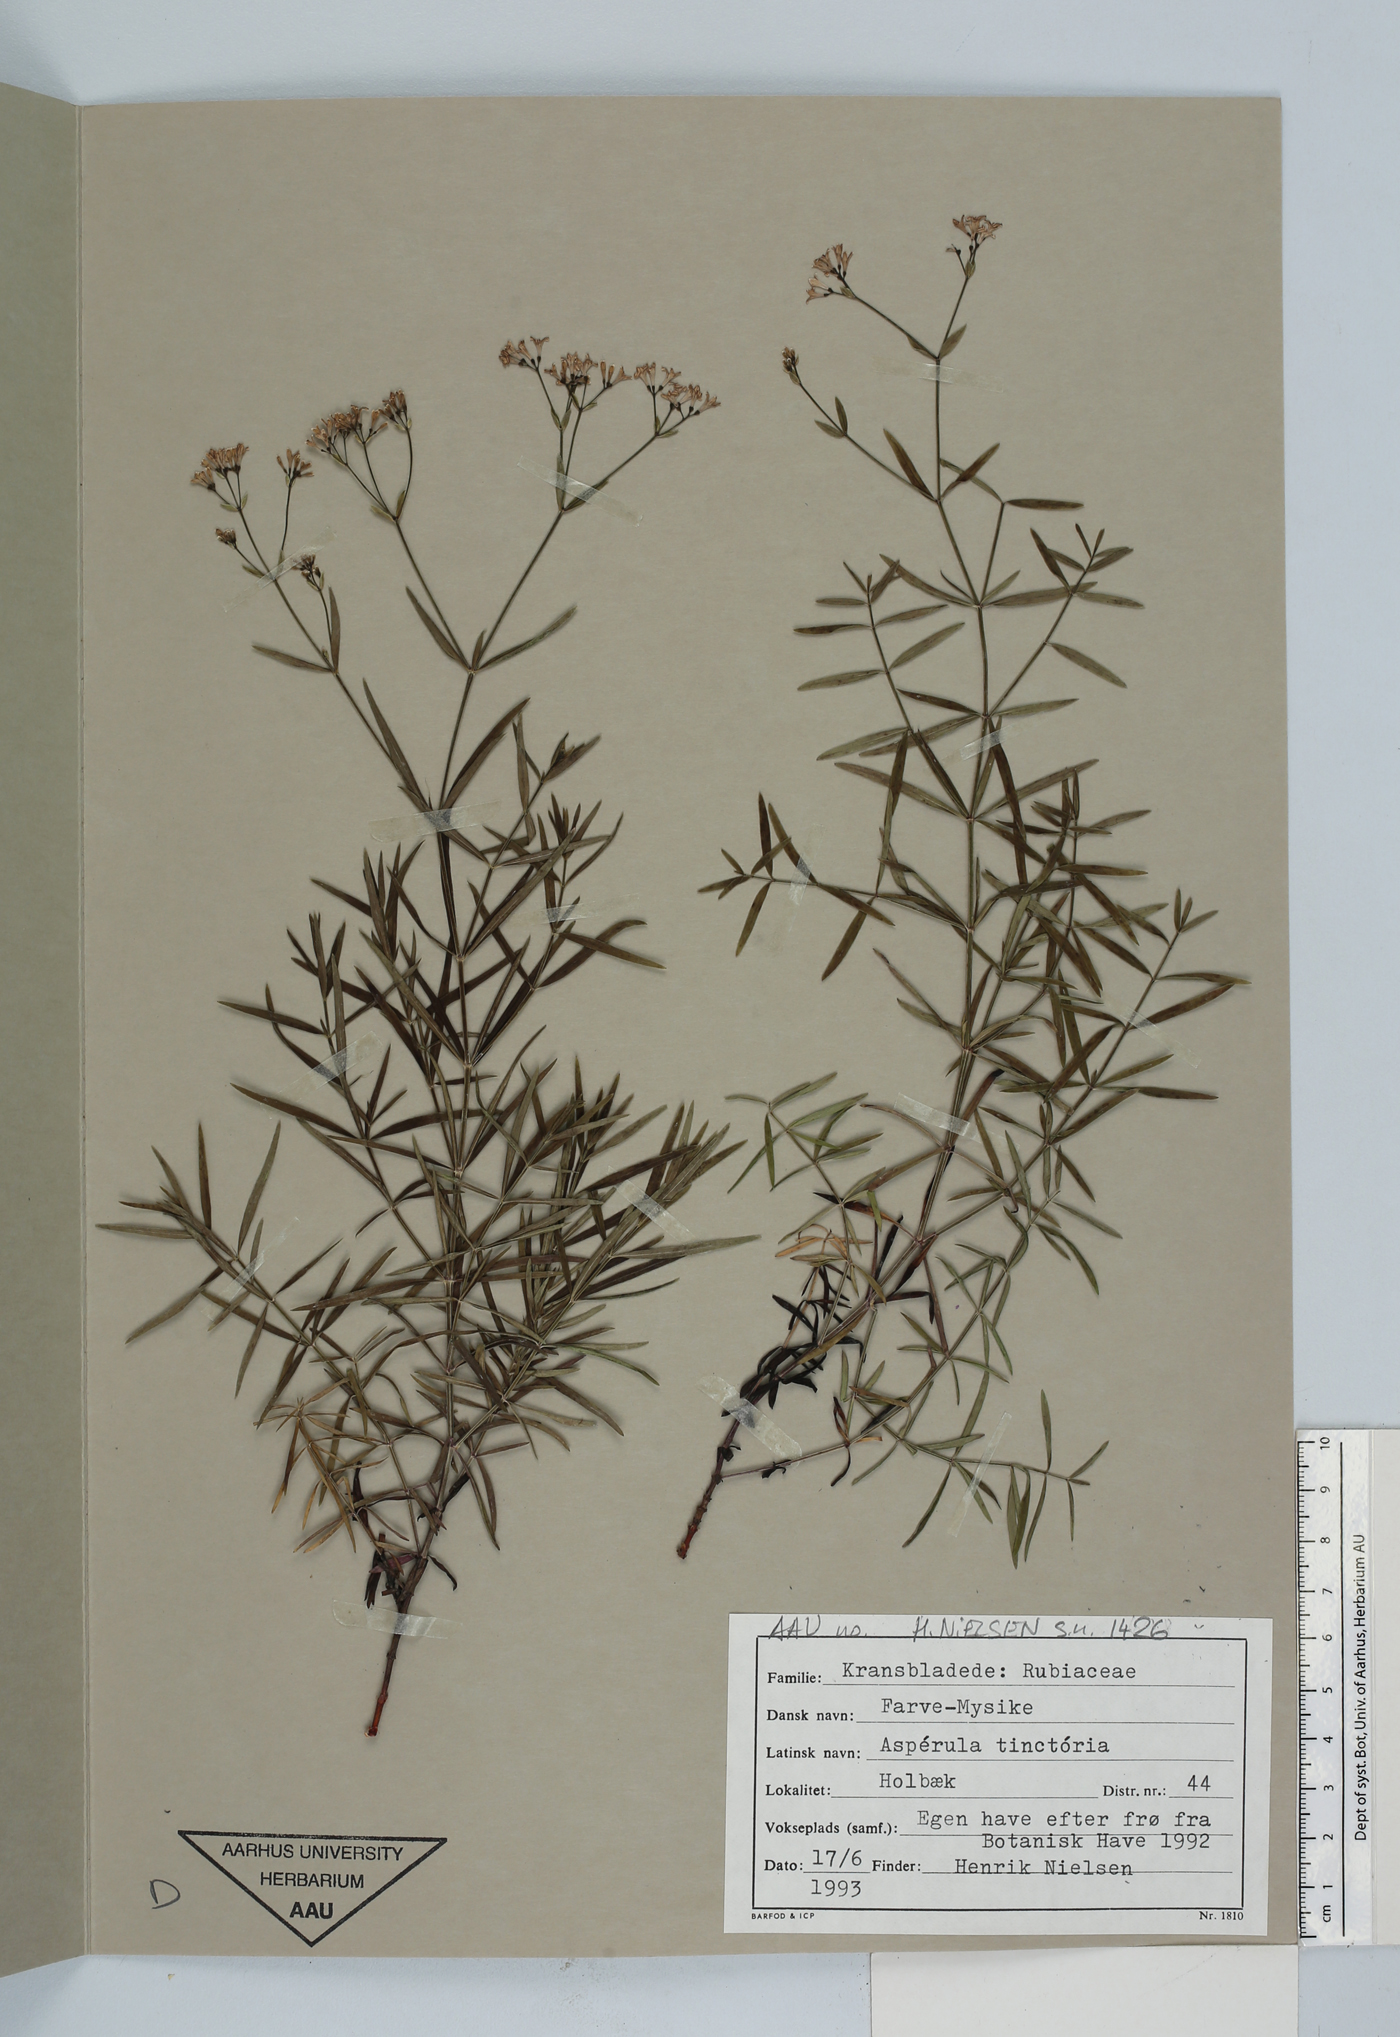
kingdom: Plantae
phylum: Tracheophyta
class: Magnoliopsida
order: Gentianales
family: Rubiaceae
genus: Asperula
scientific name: Asperula tinctoria
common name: Dyer's woodruff
